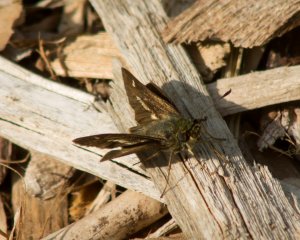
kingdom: Animalia
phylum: Arthropoda
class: Insecta
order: Lepidoptera
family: Hesperiidae
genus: Vernia
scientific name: Vernia verna
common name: Little Glassywing
